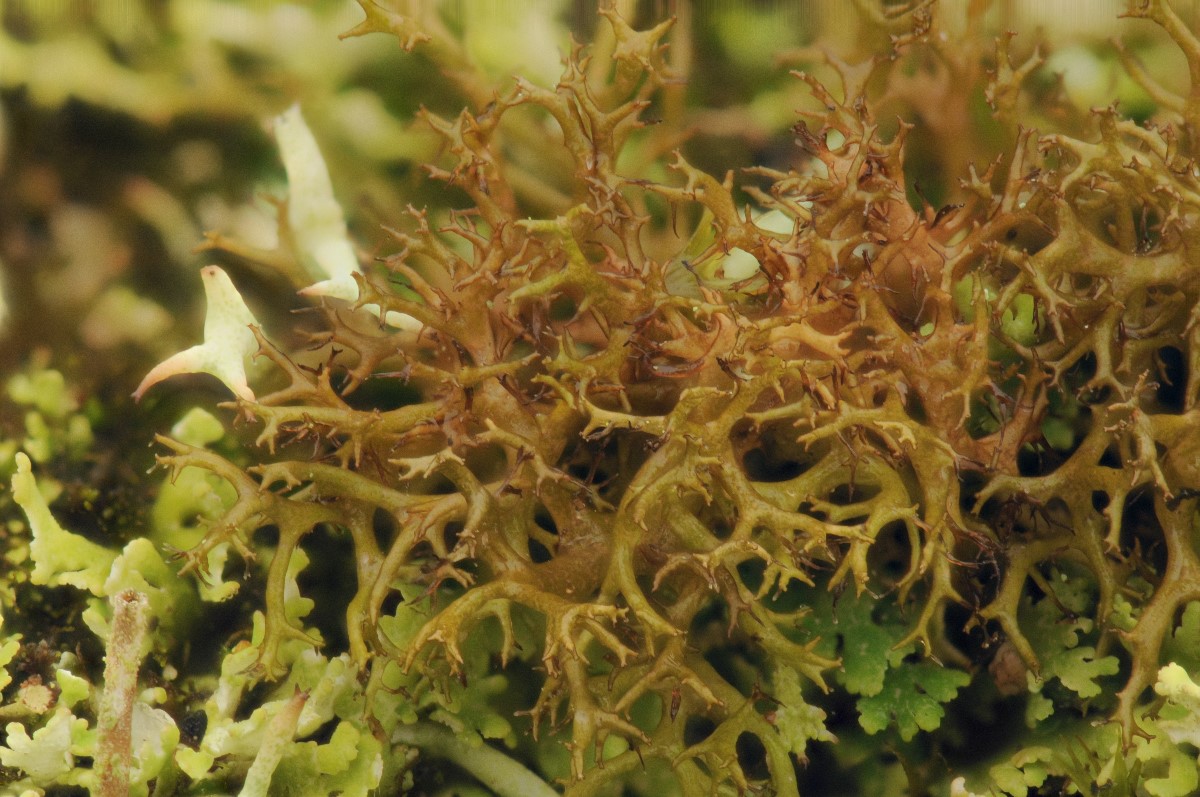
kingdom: Fungi
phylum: Ascomycota
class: Lecanoromycetes
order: Lecanorales
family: Parmeliaceae
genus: Cetraria
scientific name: Cetraria muricata
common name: tue-tjørnelav
